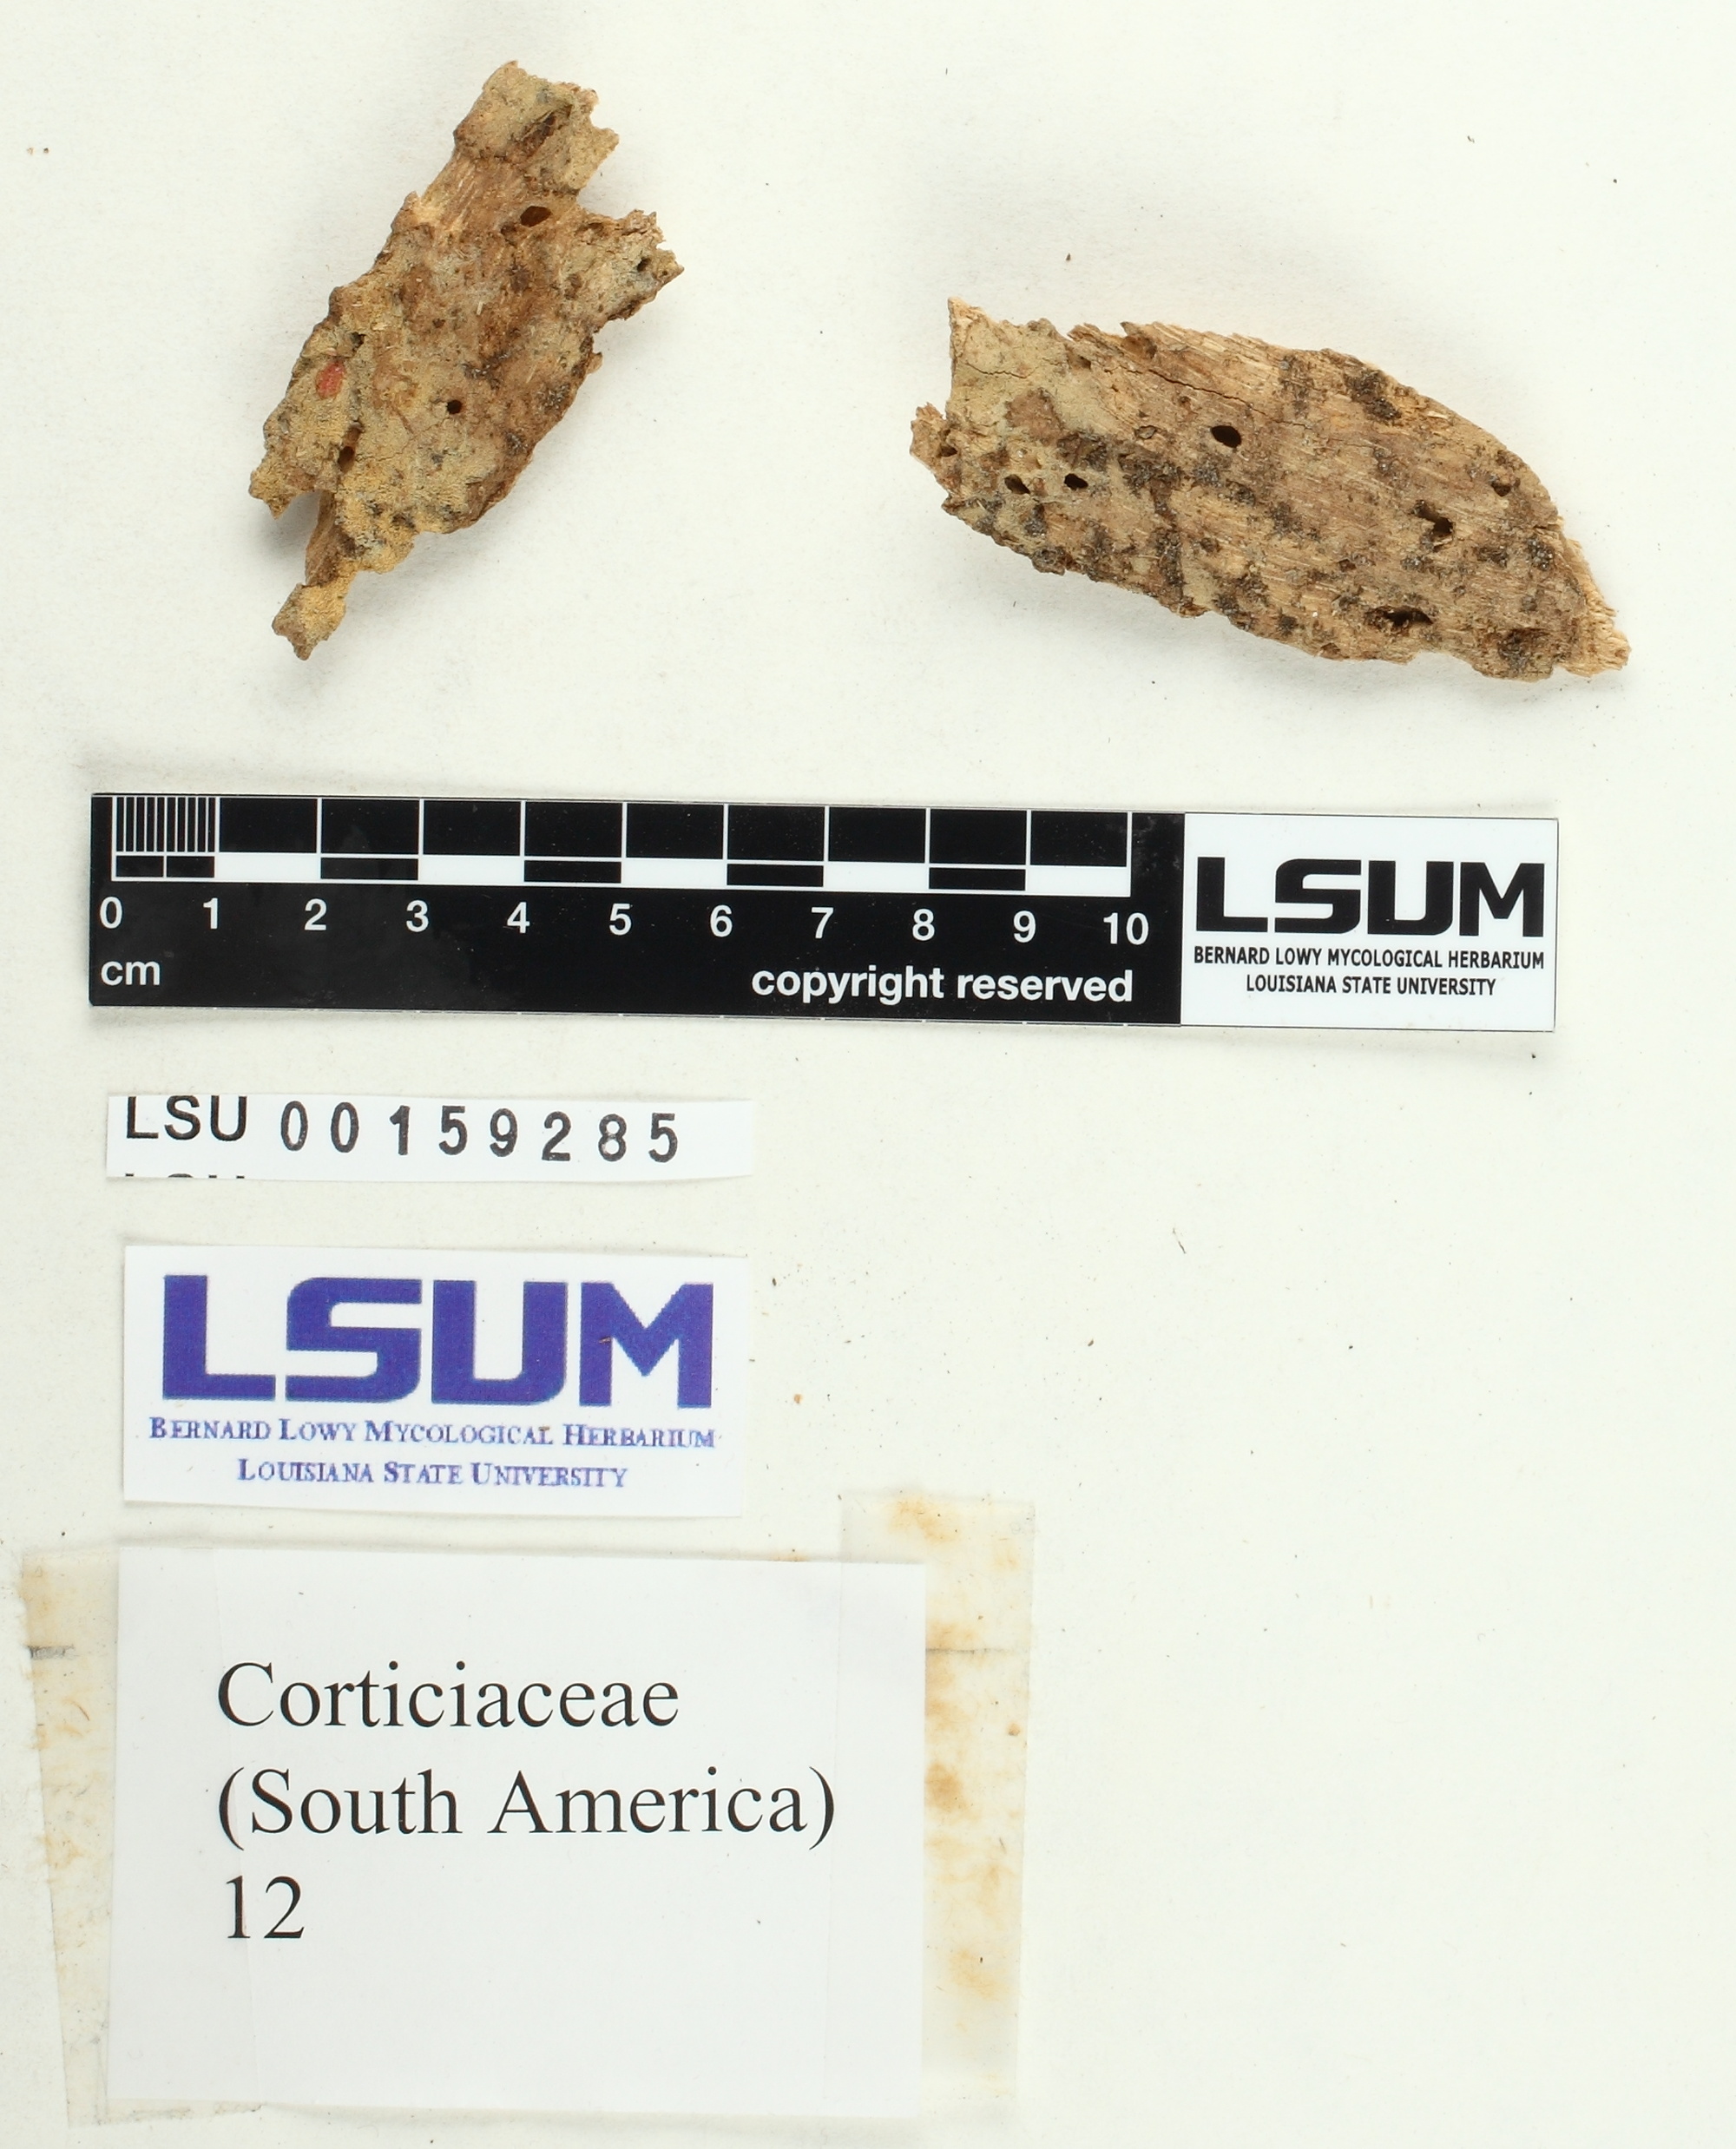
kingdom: Fungi
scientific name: Fungi
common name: Fungi
